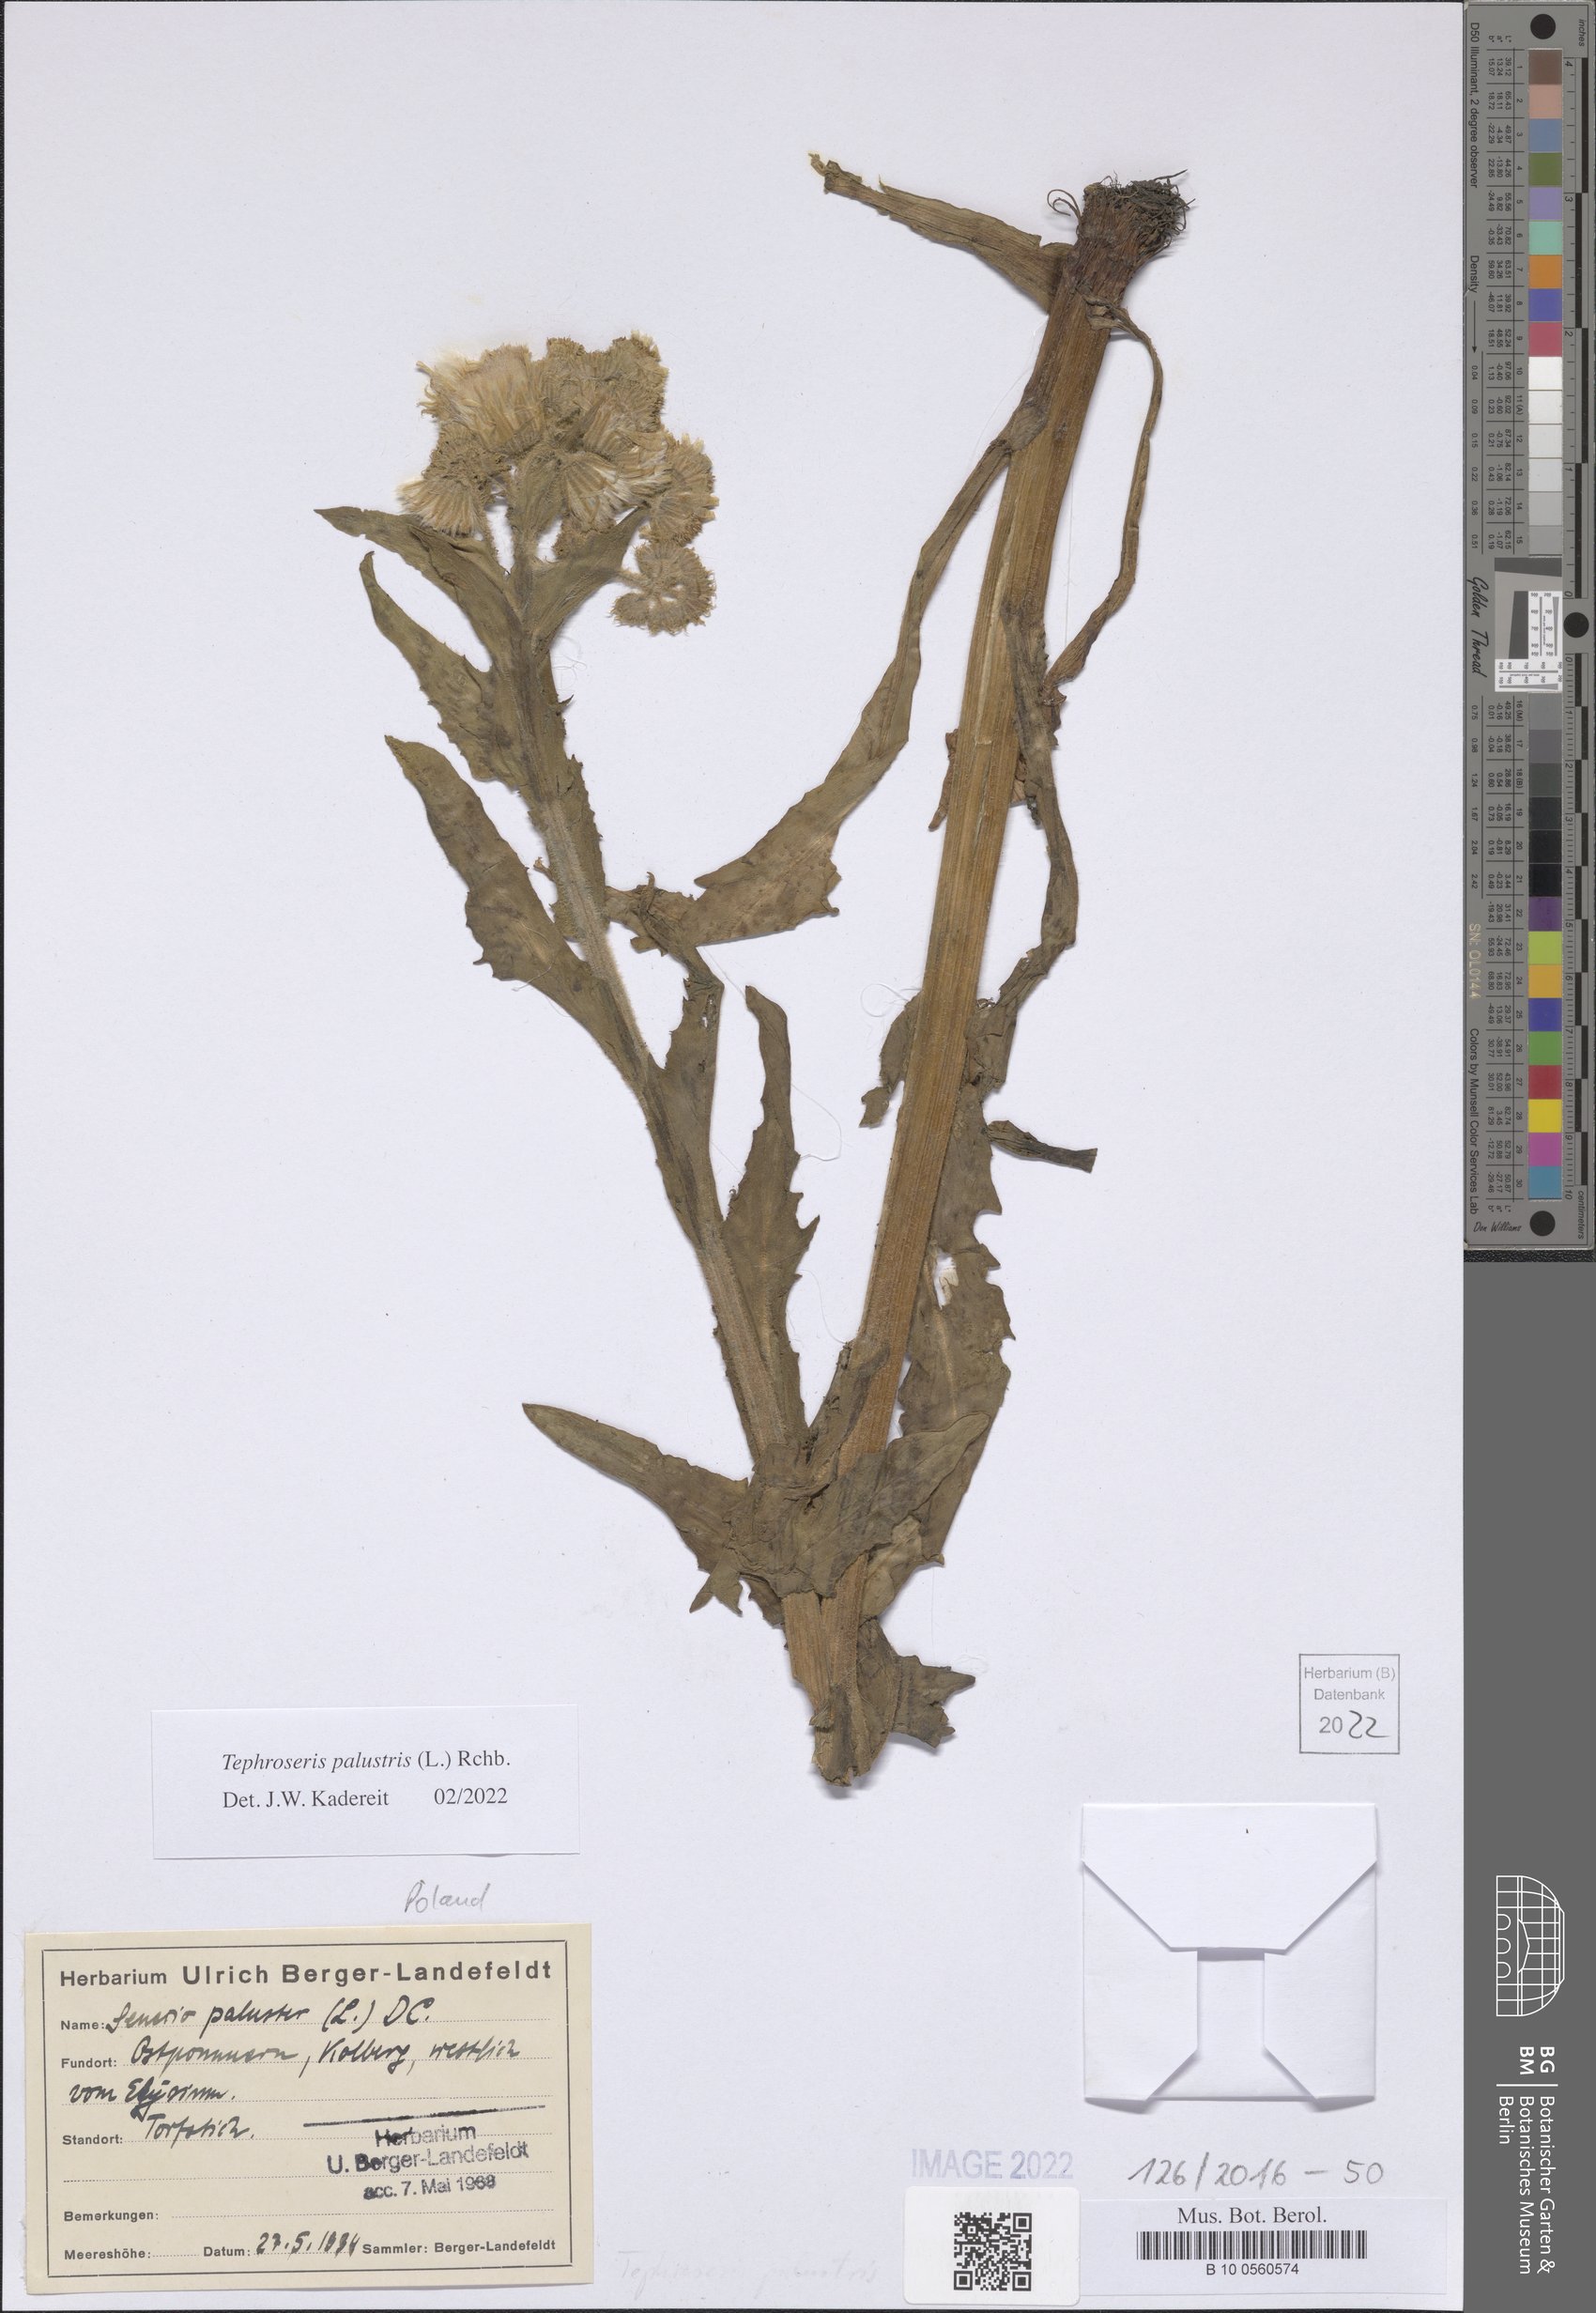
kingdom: Plantae
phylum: Tracheophyta
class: Magnoliopsida
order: Asterales
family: Asteraceae
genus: Tephroseris
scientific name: Tephroseris palustris
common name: Marsh fleawort
